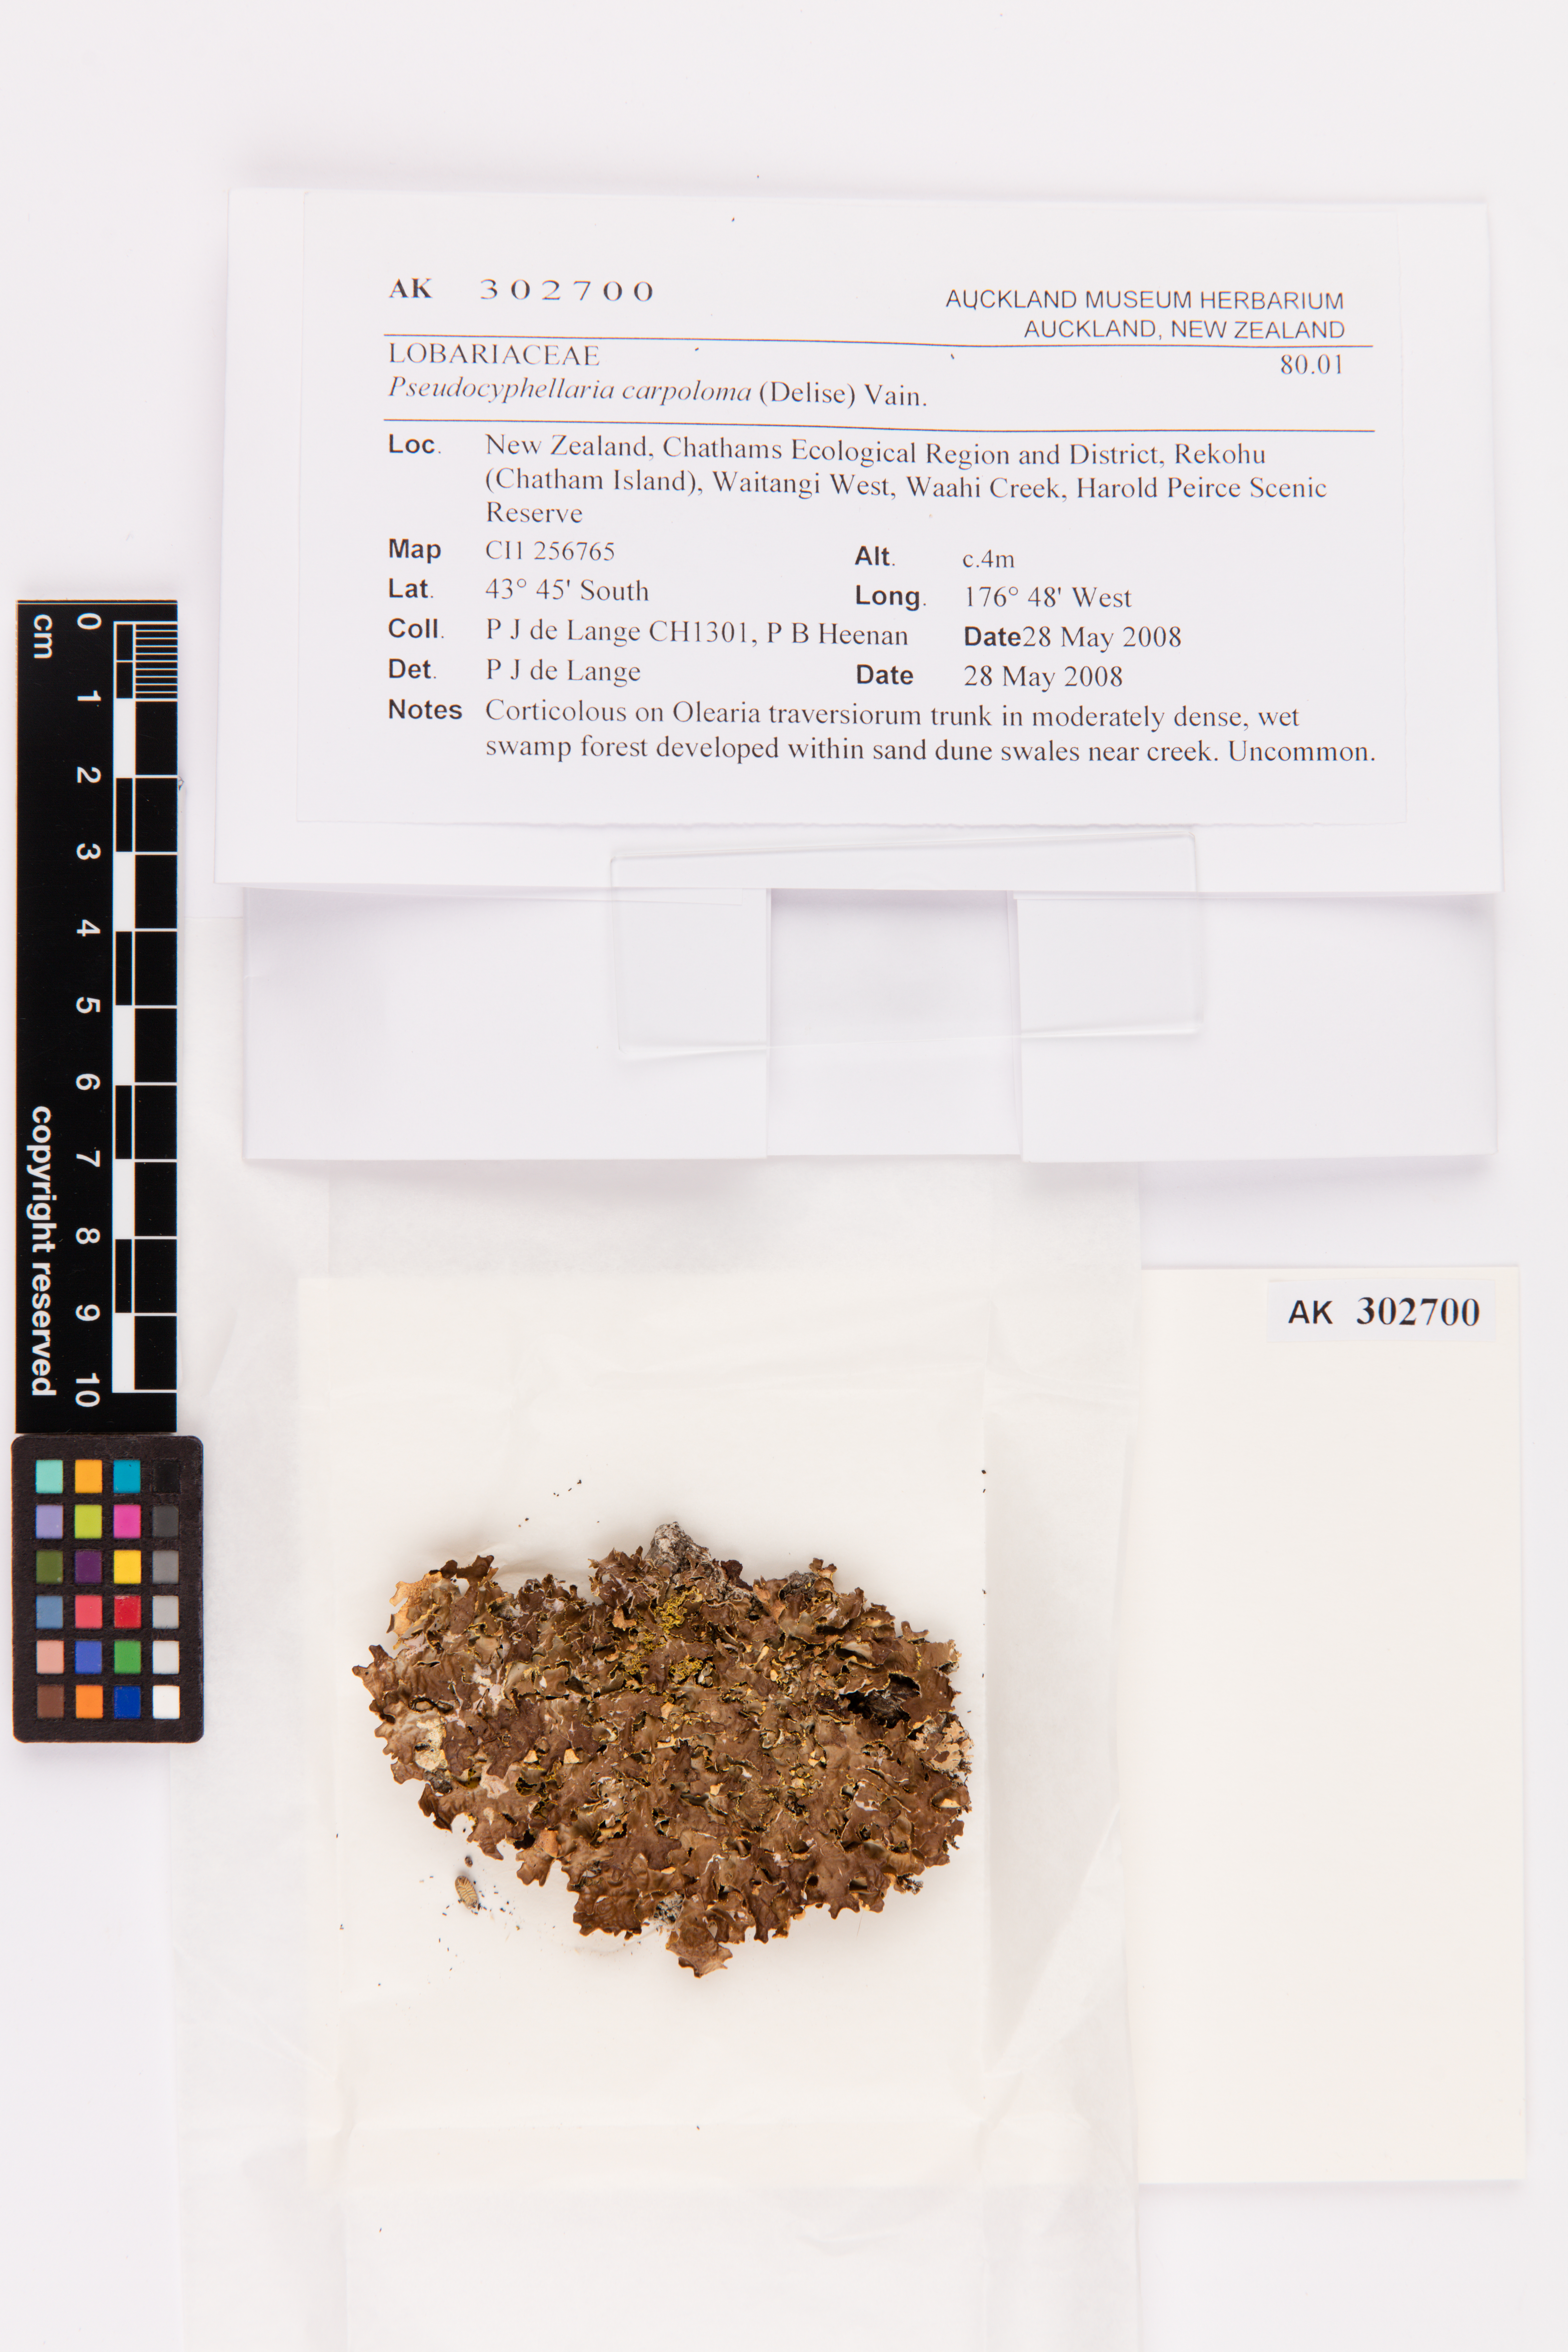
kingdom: Fungi
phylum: Ascomycota
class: Lecanoromycetes
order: Peltigerales
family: Lobariaceae
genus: Pseudocyphellaria
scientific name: Pseudocyphellaria carpoloma
